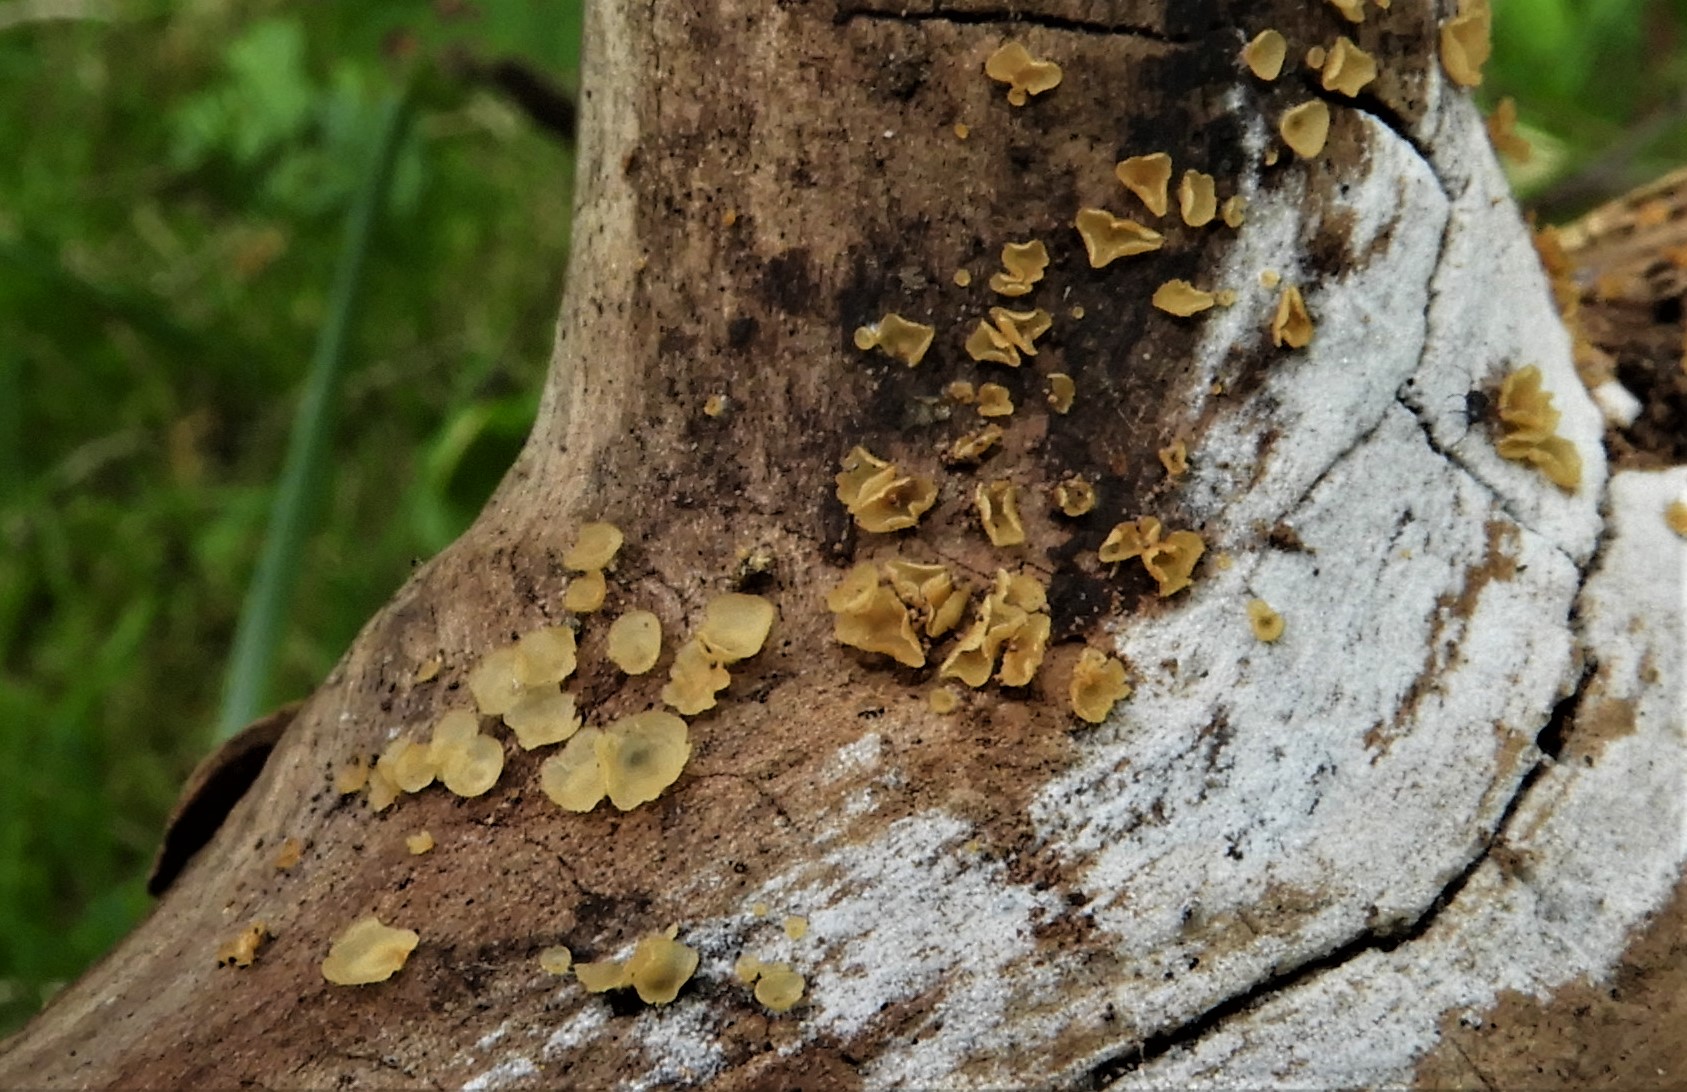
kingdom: Fungi
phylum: Ascomycota
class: Orbiliomycetes
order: Orbiliales
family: Orbiliaceae
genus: Hyalorbilia
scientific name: Hyalorbilia
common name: voksskive
